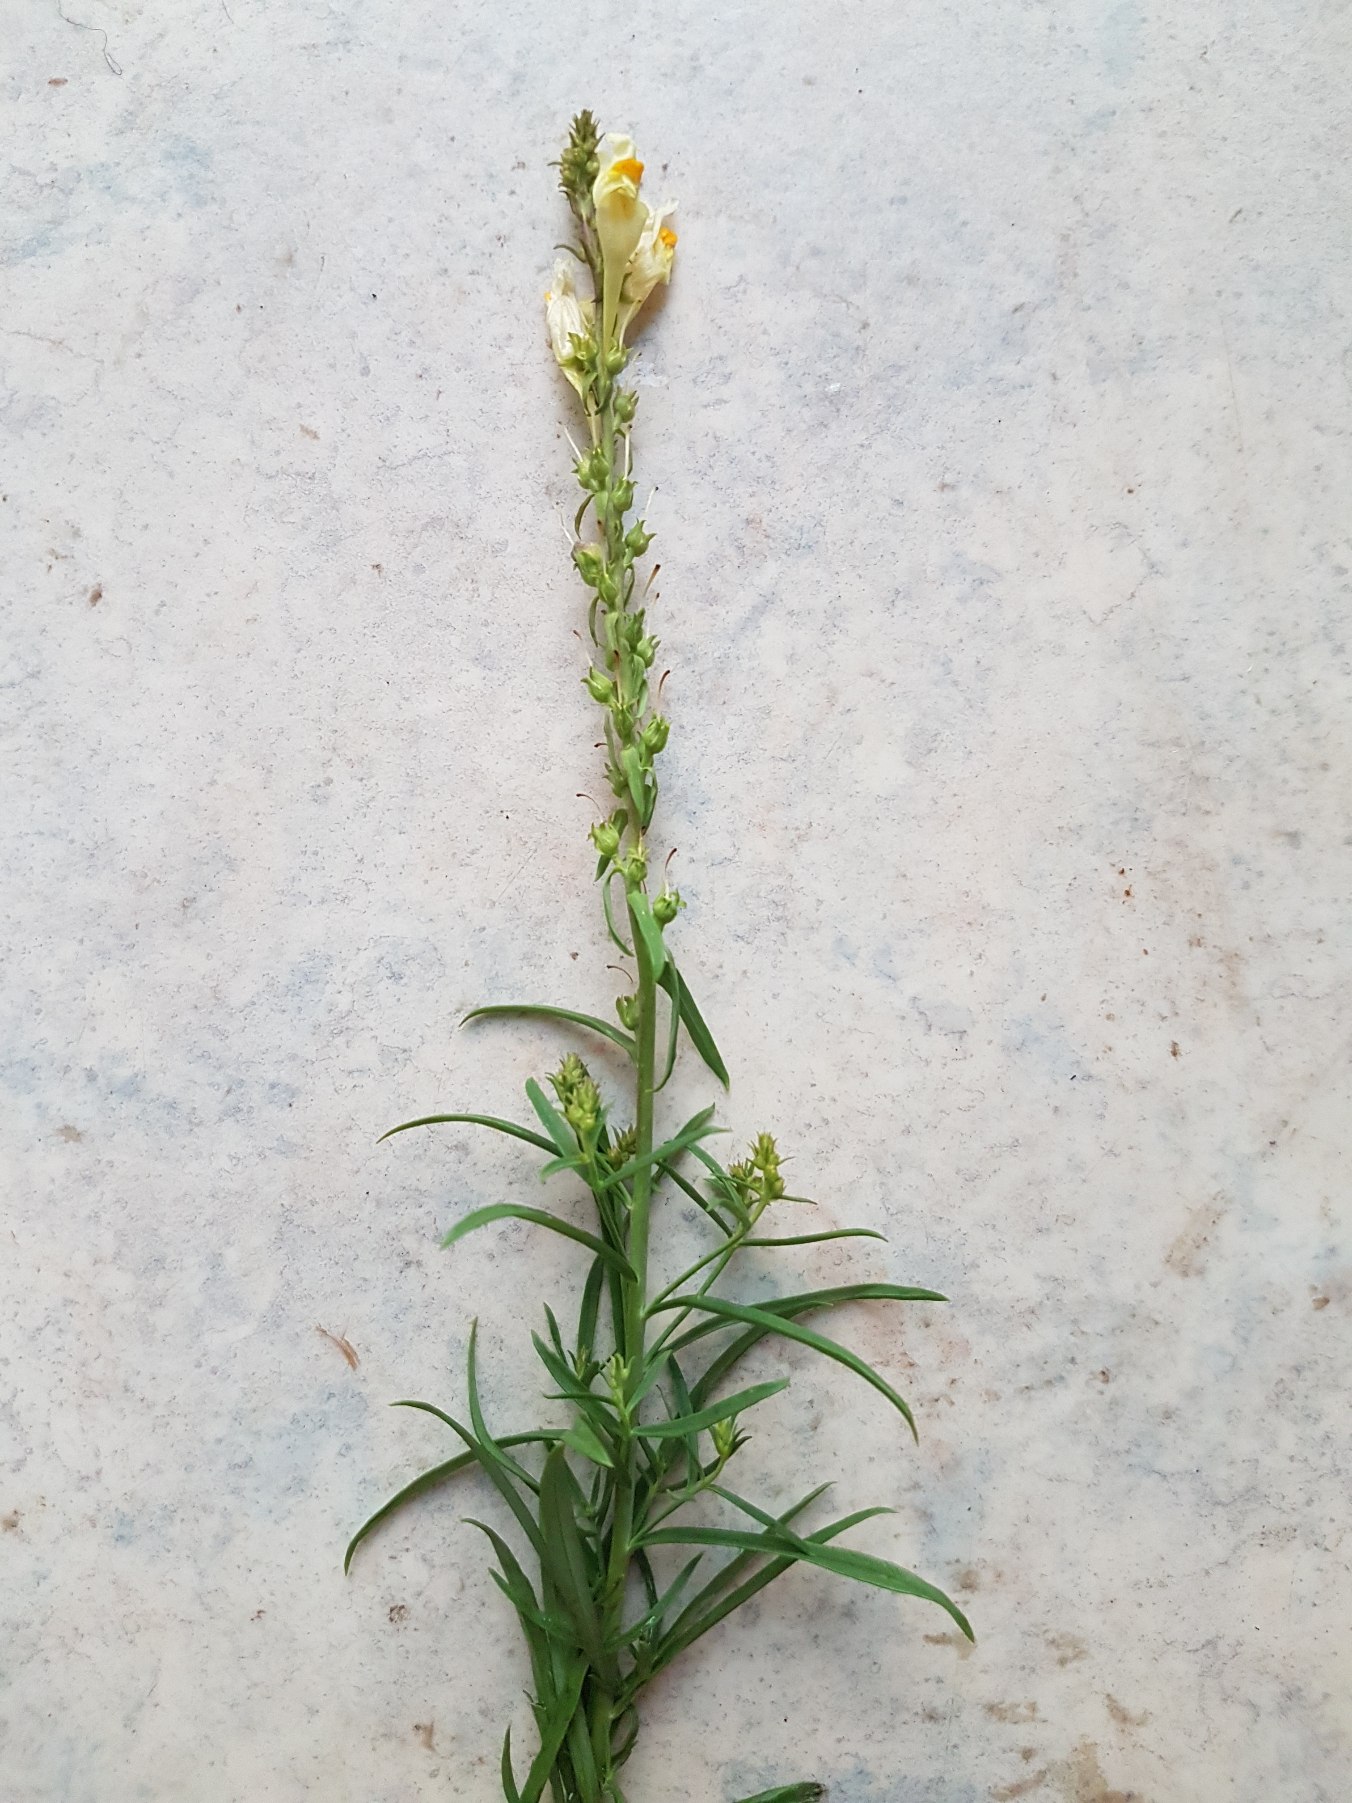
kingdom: Plantae
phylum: Tracheophyta
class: Magnoliopsida
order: Lamiales
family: Plantaginaceae
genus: Linaria
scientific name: Linaria vulgaris
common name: Almindelig torskemund
